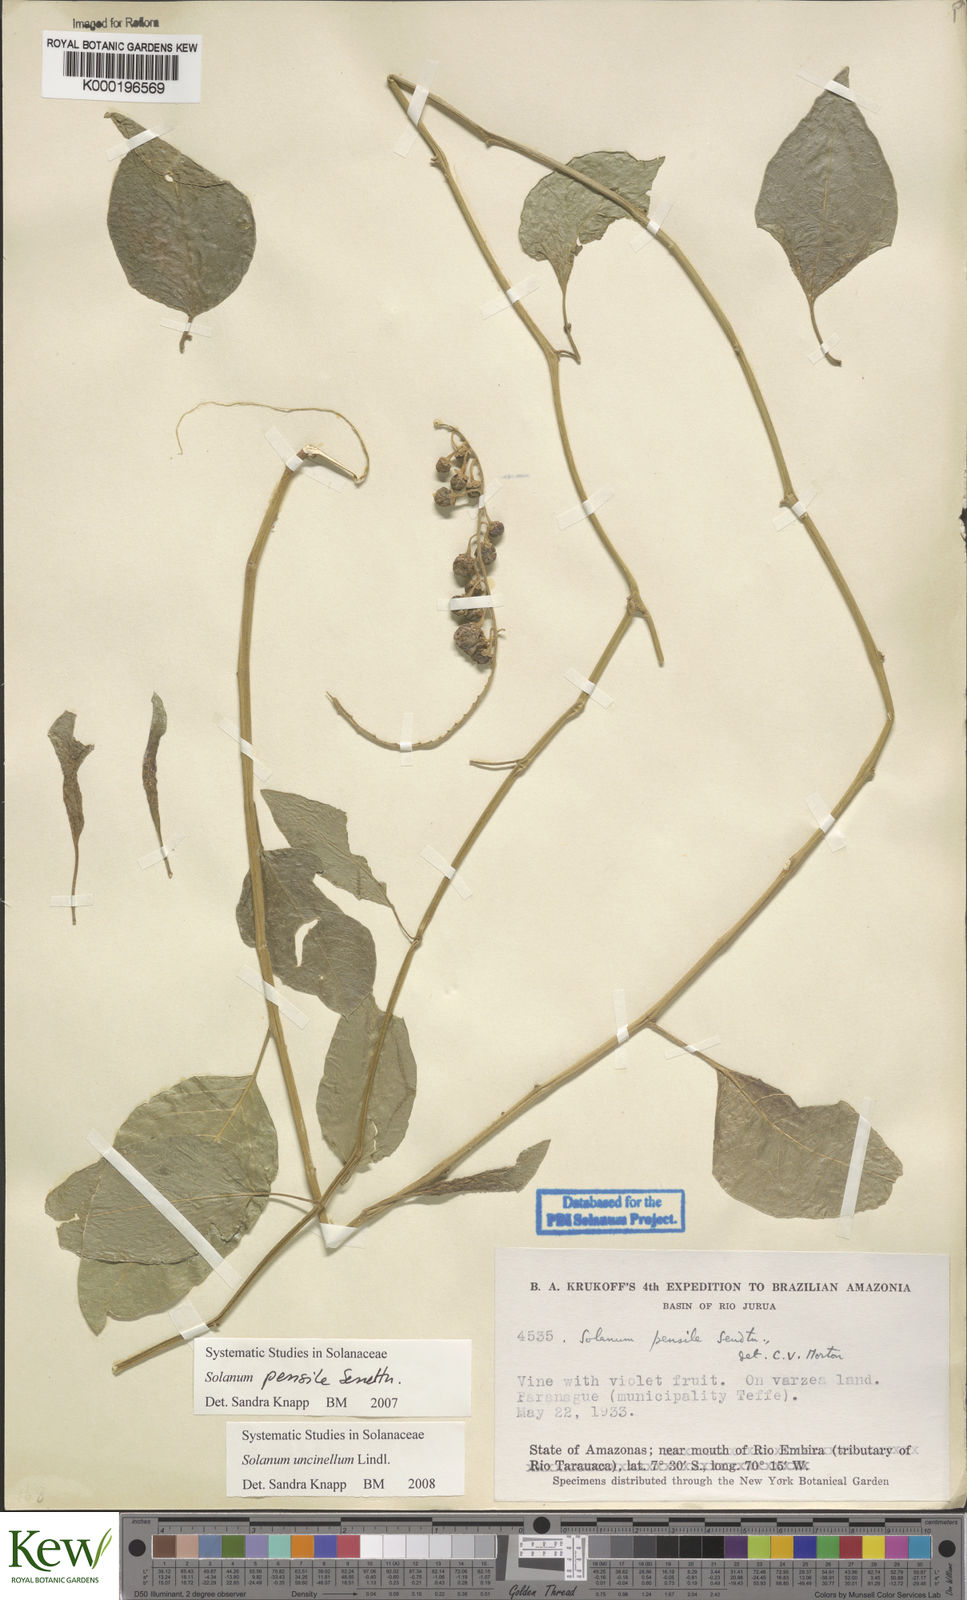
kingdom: Plantae
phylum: Tracheophyta
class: Magnoliopsida
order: Solanales
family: Solanaceae
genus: Solanum
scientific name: Solanum uncinellum
